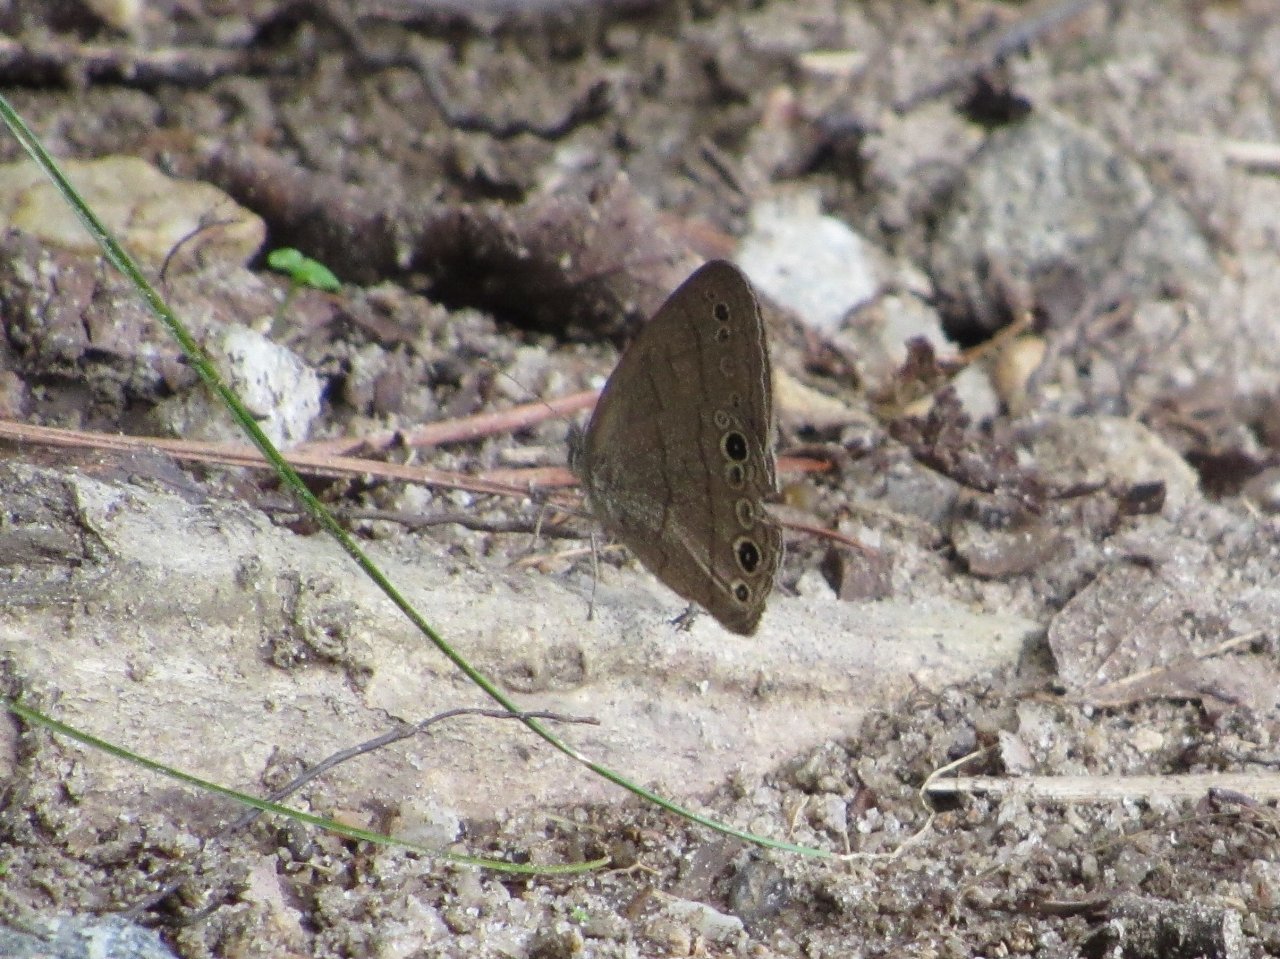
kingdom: Animalia
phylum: Arthropoda
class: Insecta
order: Lepidoptera
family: Nymphalidae
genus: Hermeuptychia
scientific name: Hermeuptychia hermes
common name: Carolina Satyr
